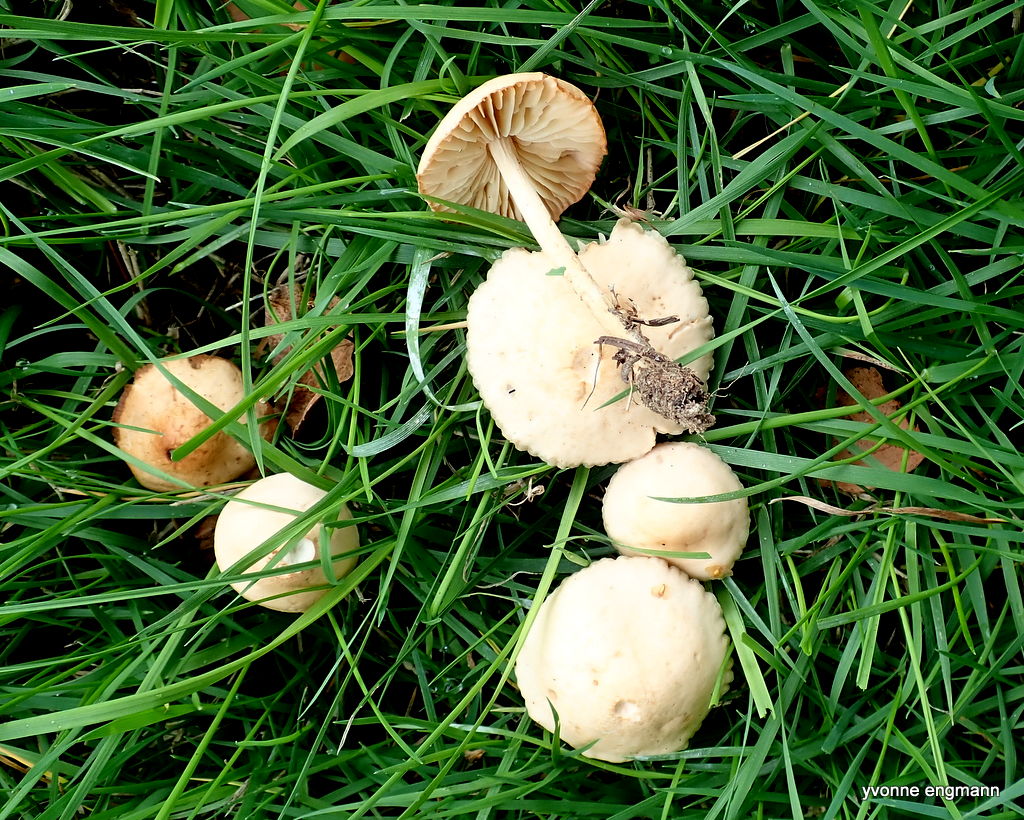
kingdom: Fungi
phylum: Basidiomycota
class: Agaricomycetes
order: Agaricales
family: Marasmiaceae
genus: Marasmius
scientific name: Marasmius oreades
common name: elledans-bruskhat
